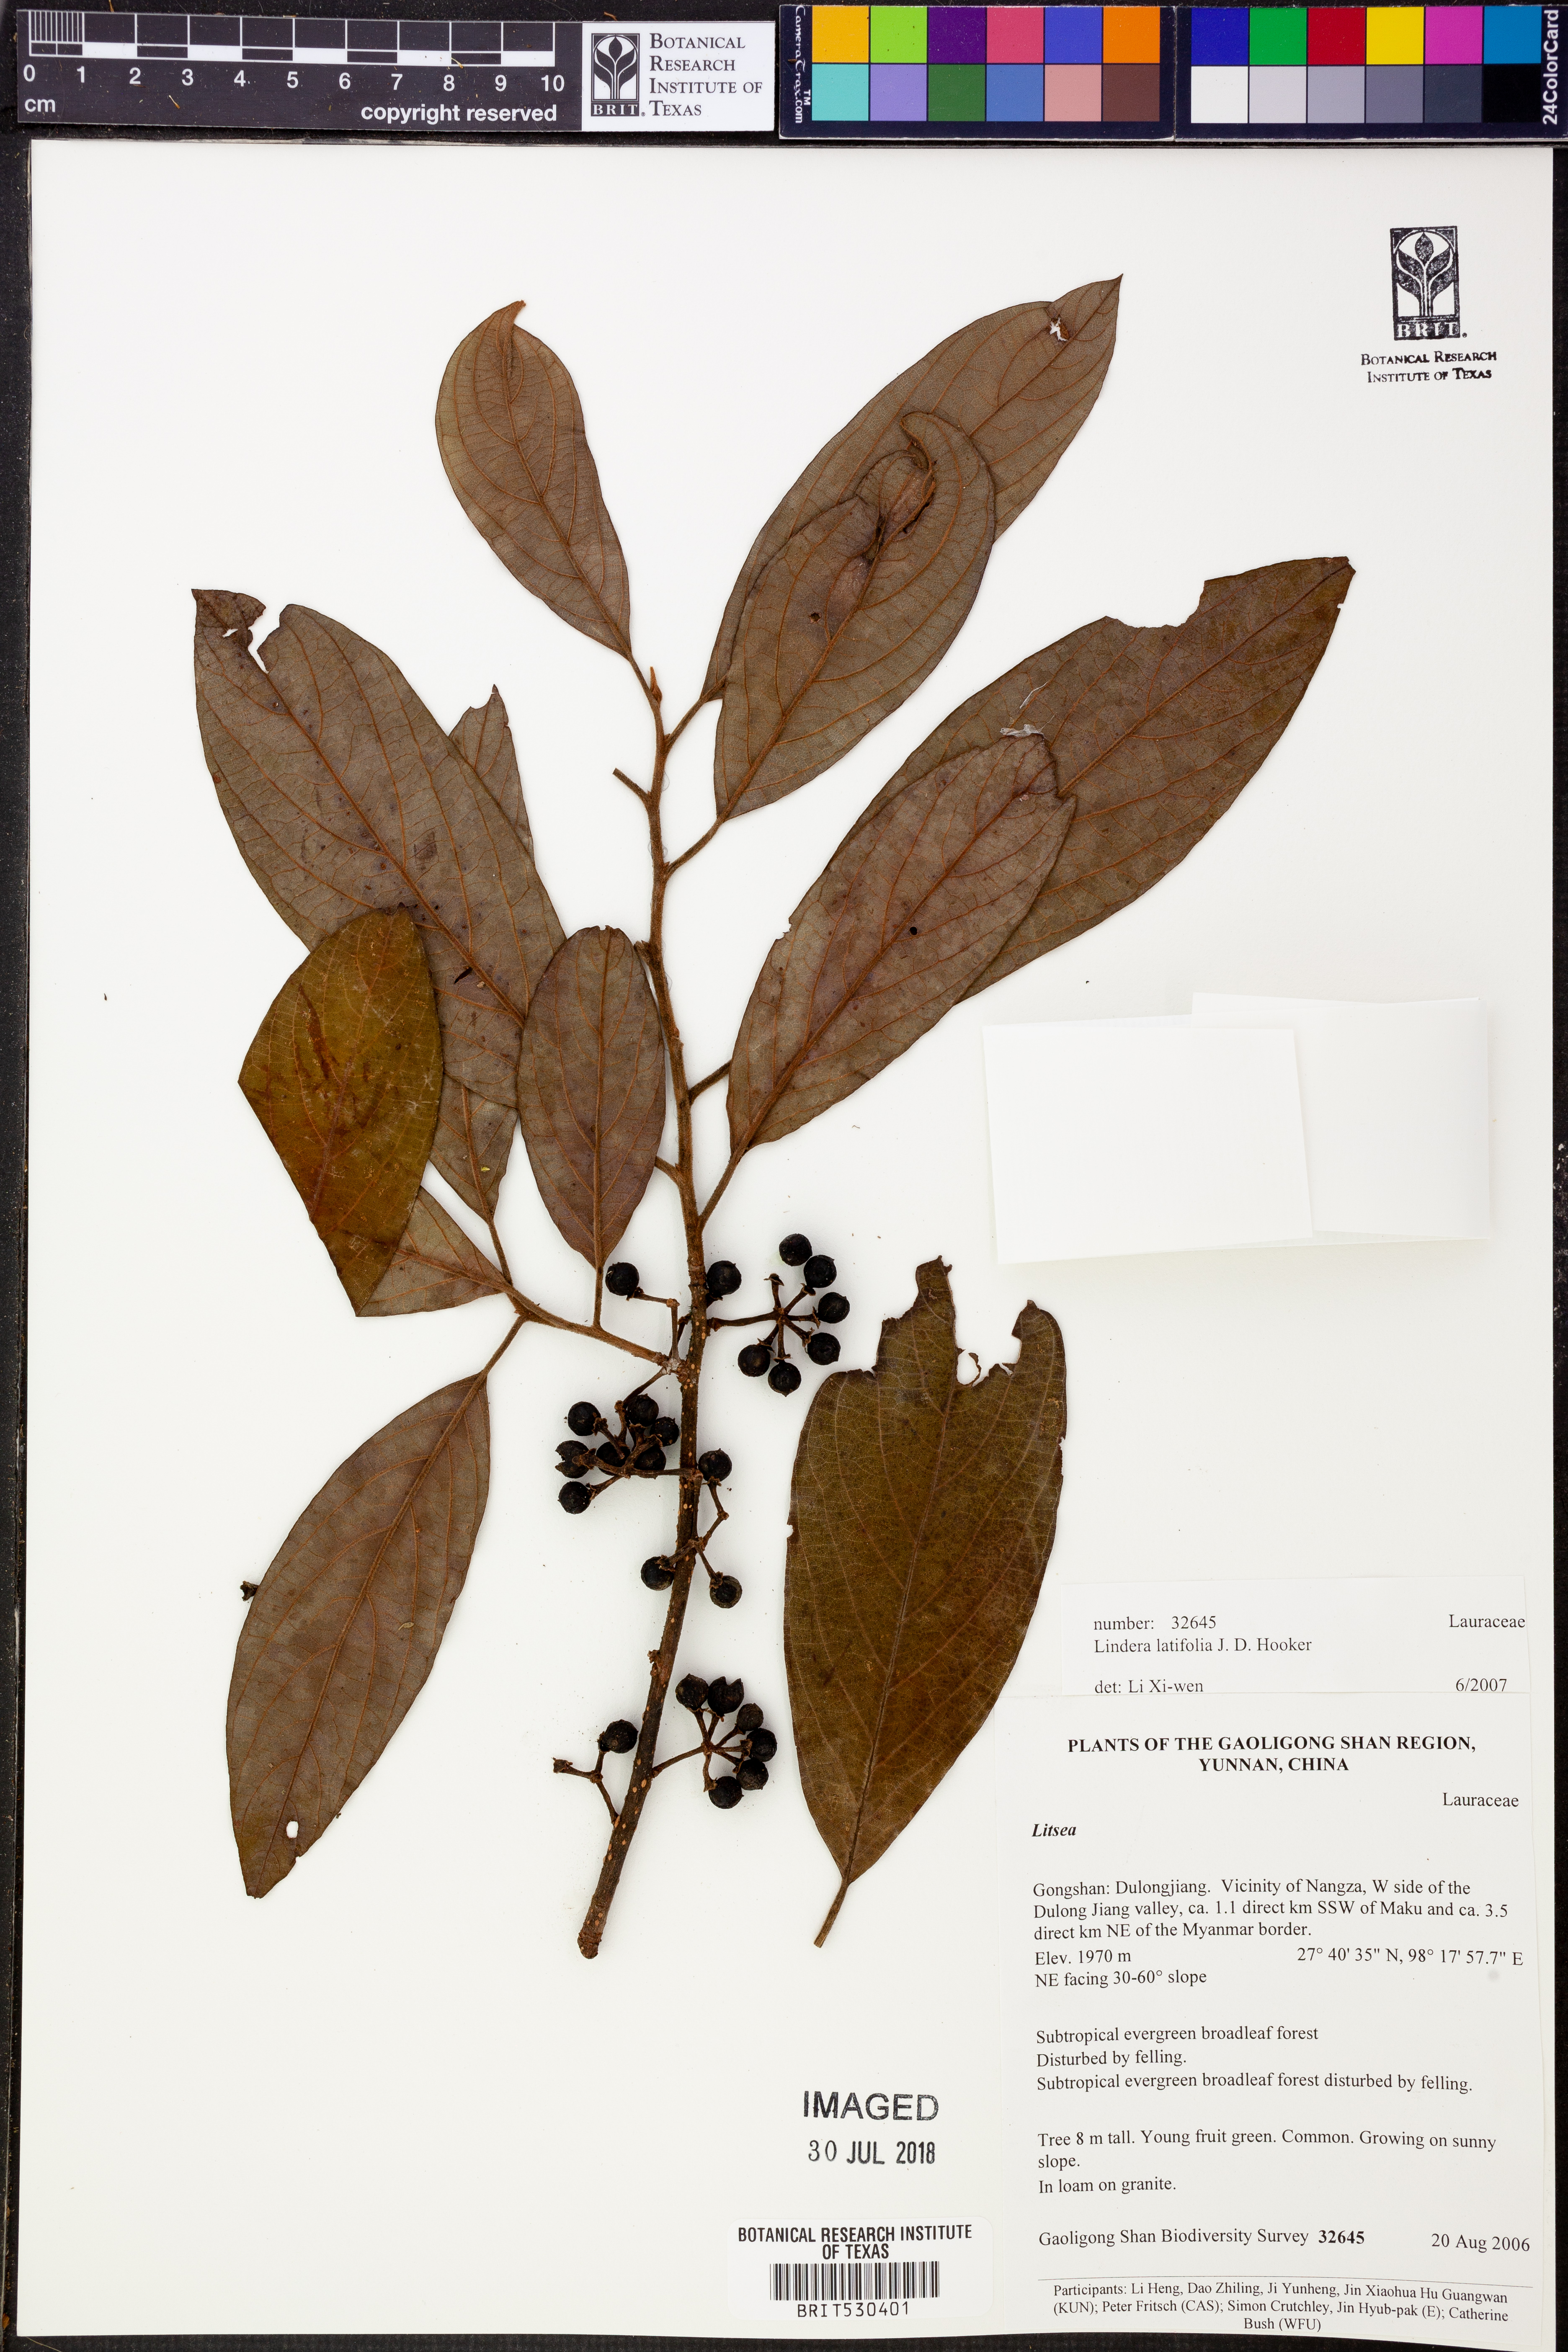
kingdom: Plantae
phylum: Tracheophyta
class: Magnoliopsida
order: Laurales
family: Lauraceae
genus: Lindera
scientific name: Lindera latifolia
